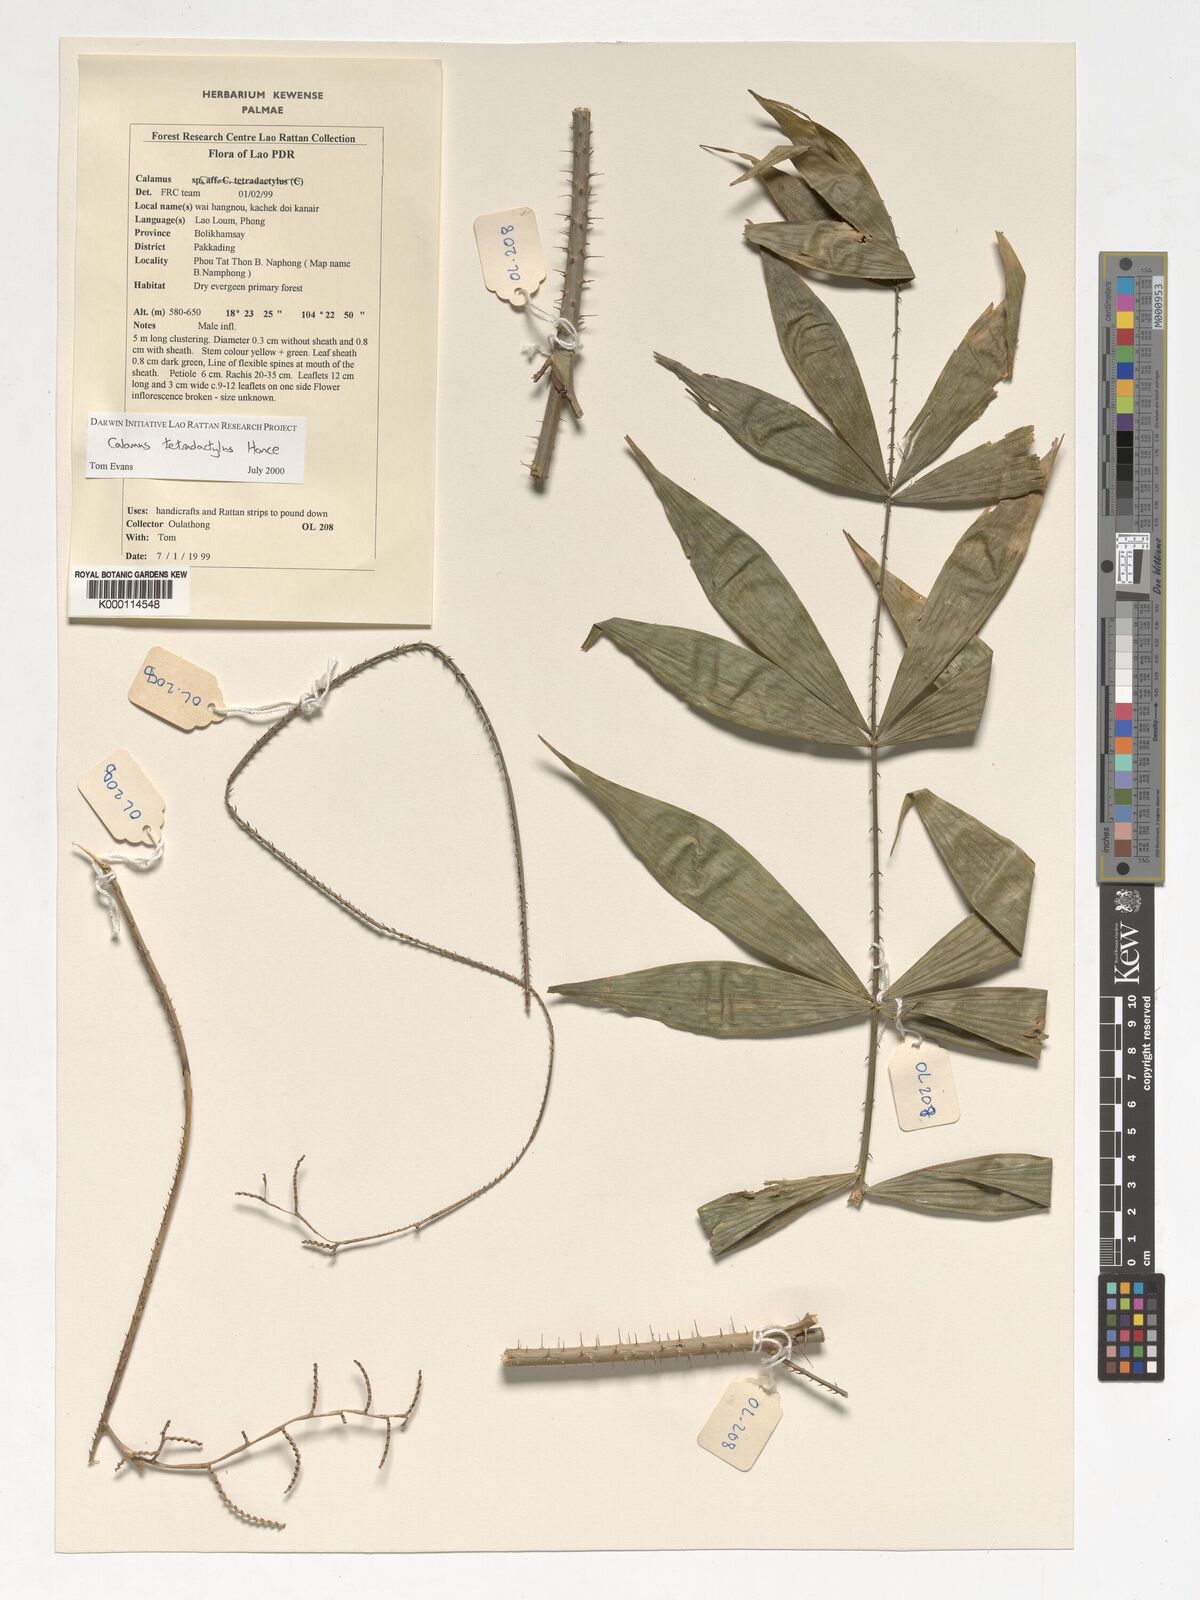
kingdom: Plantae
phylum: Tracheophyta
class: Liliopsida
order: Arecales
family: Arecaceae
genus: Calamus
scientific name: Calamus tetradactylus
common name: White rattan
